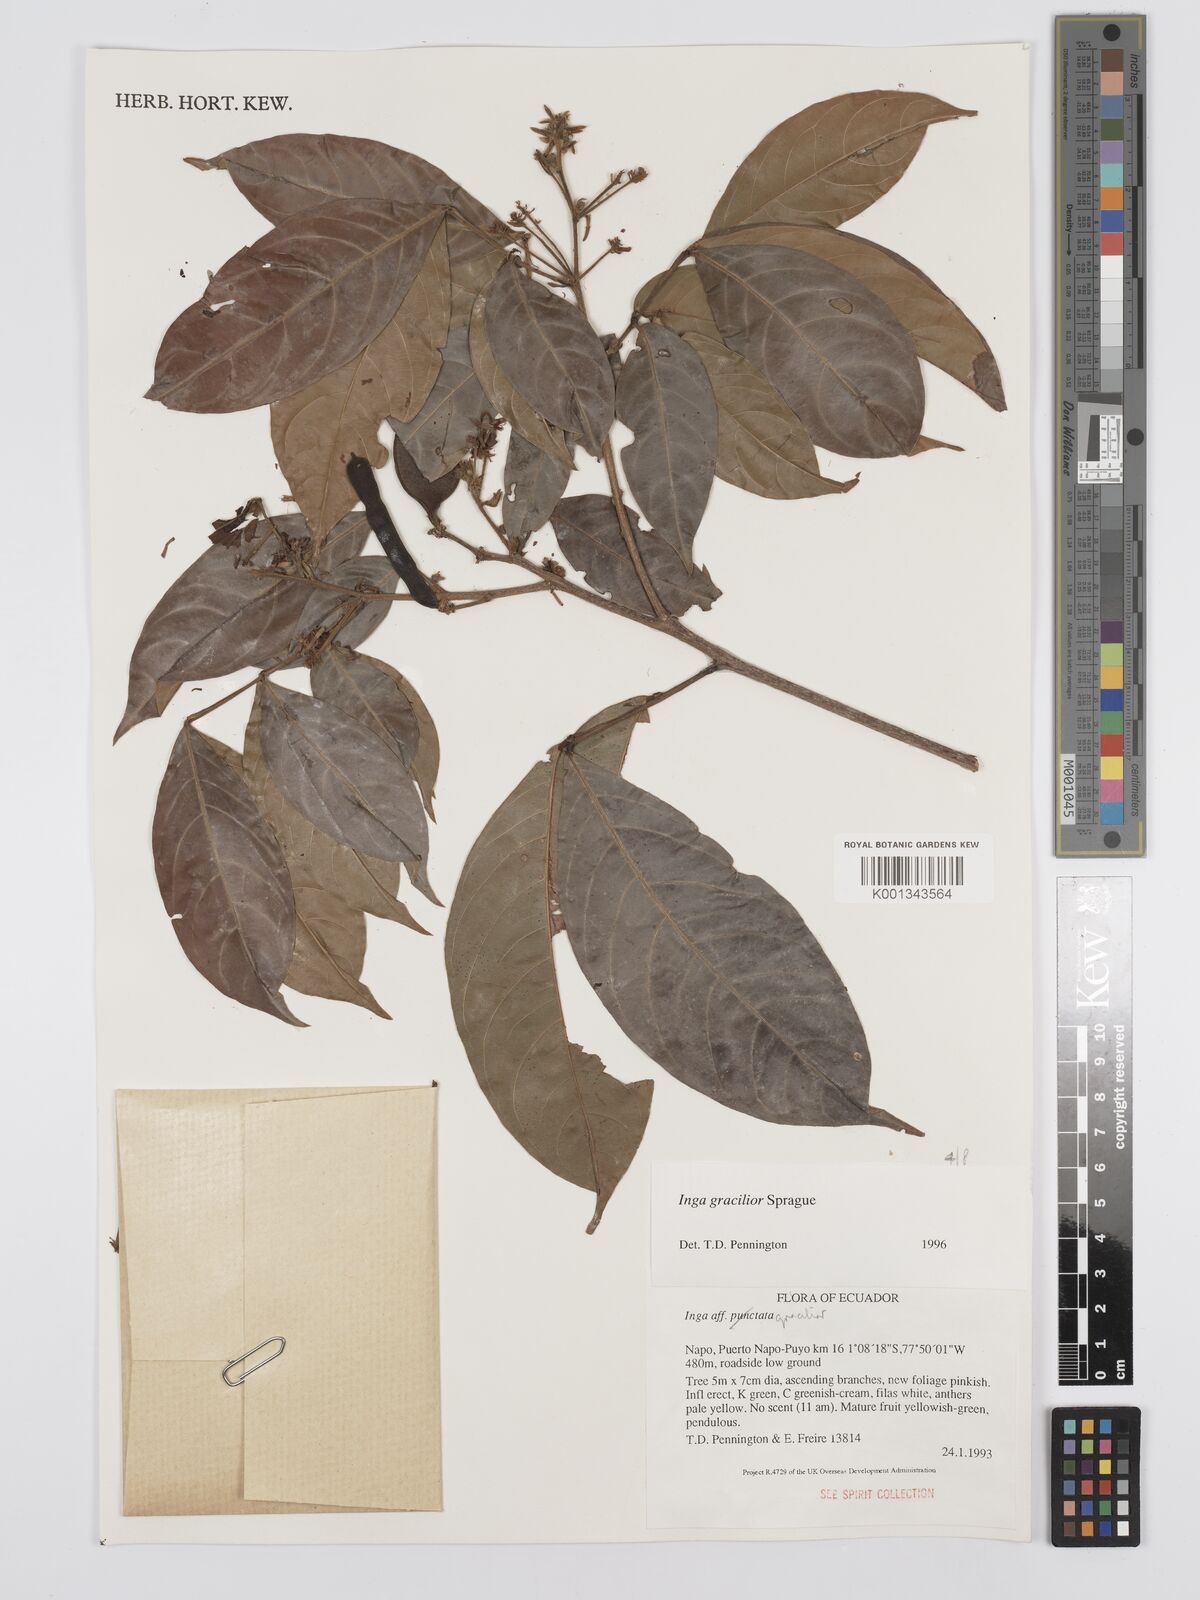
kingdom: Plantae
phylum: Tracheophyta
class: Magnoliopsida
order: Fabales
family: Fabaceae
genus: Inga
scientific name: Inga gracilior
